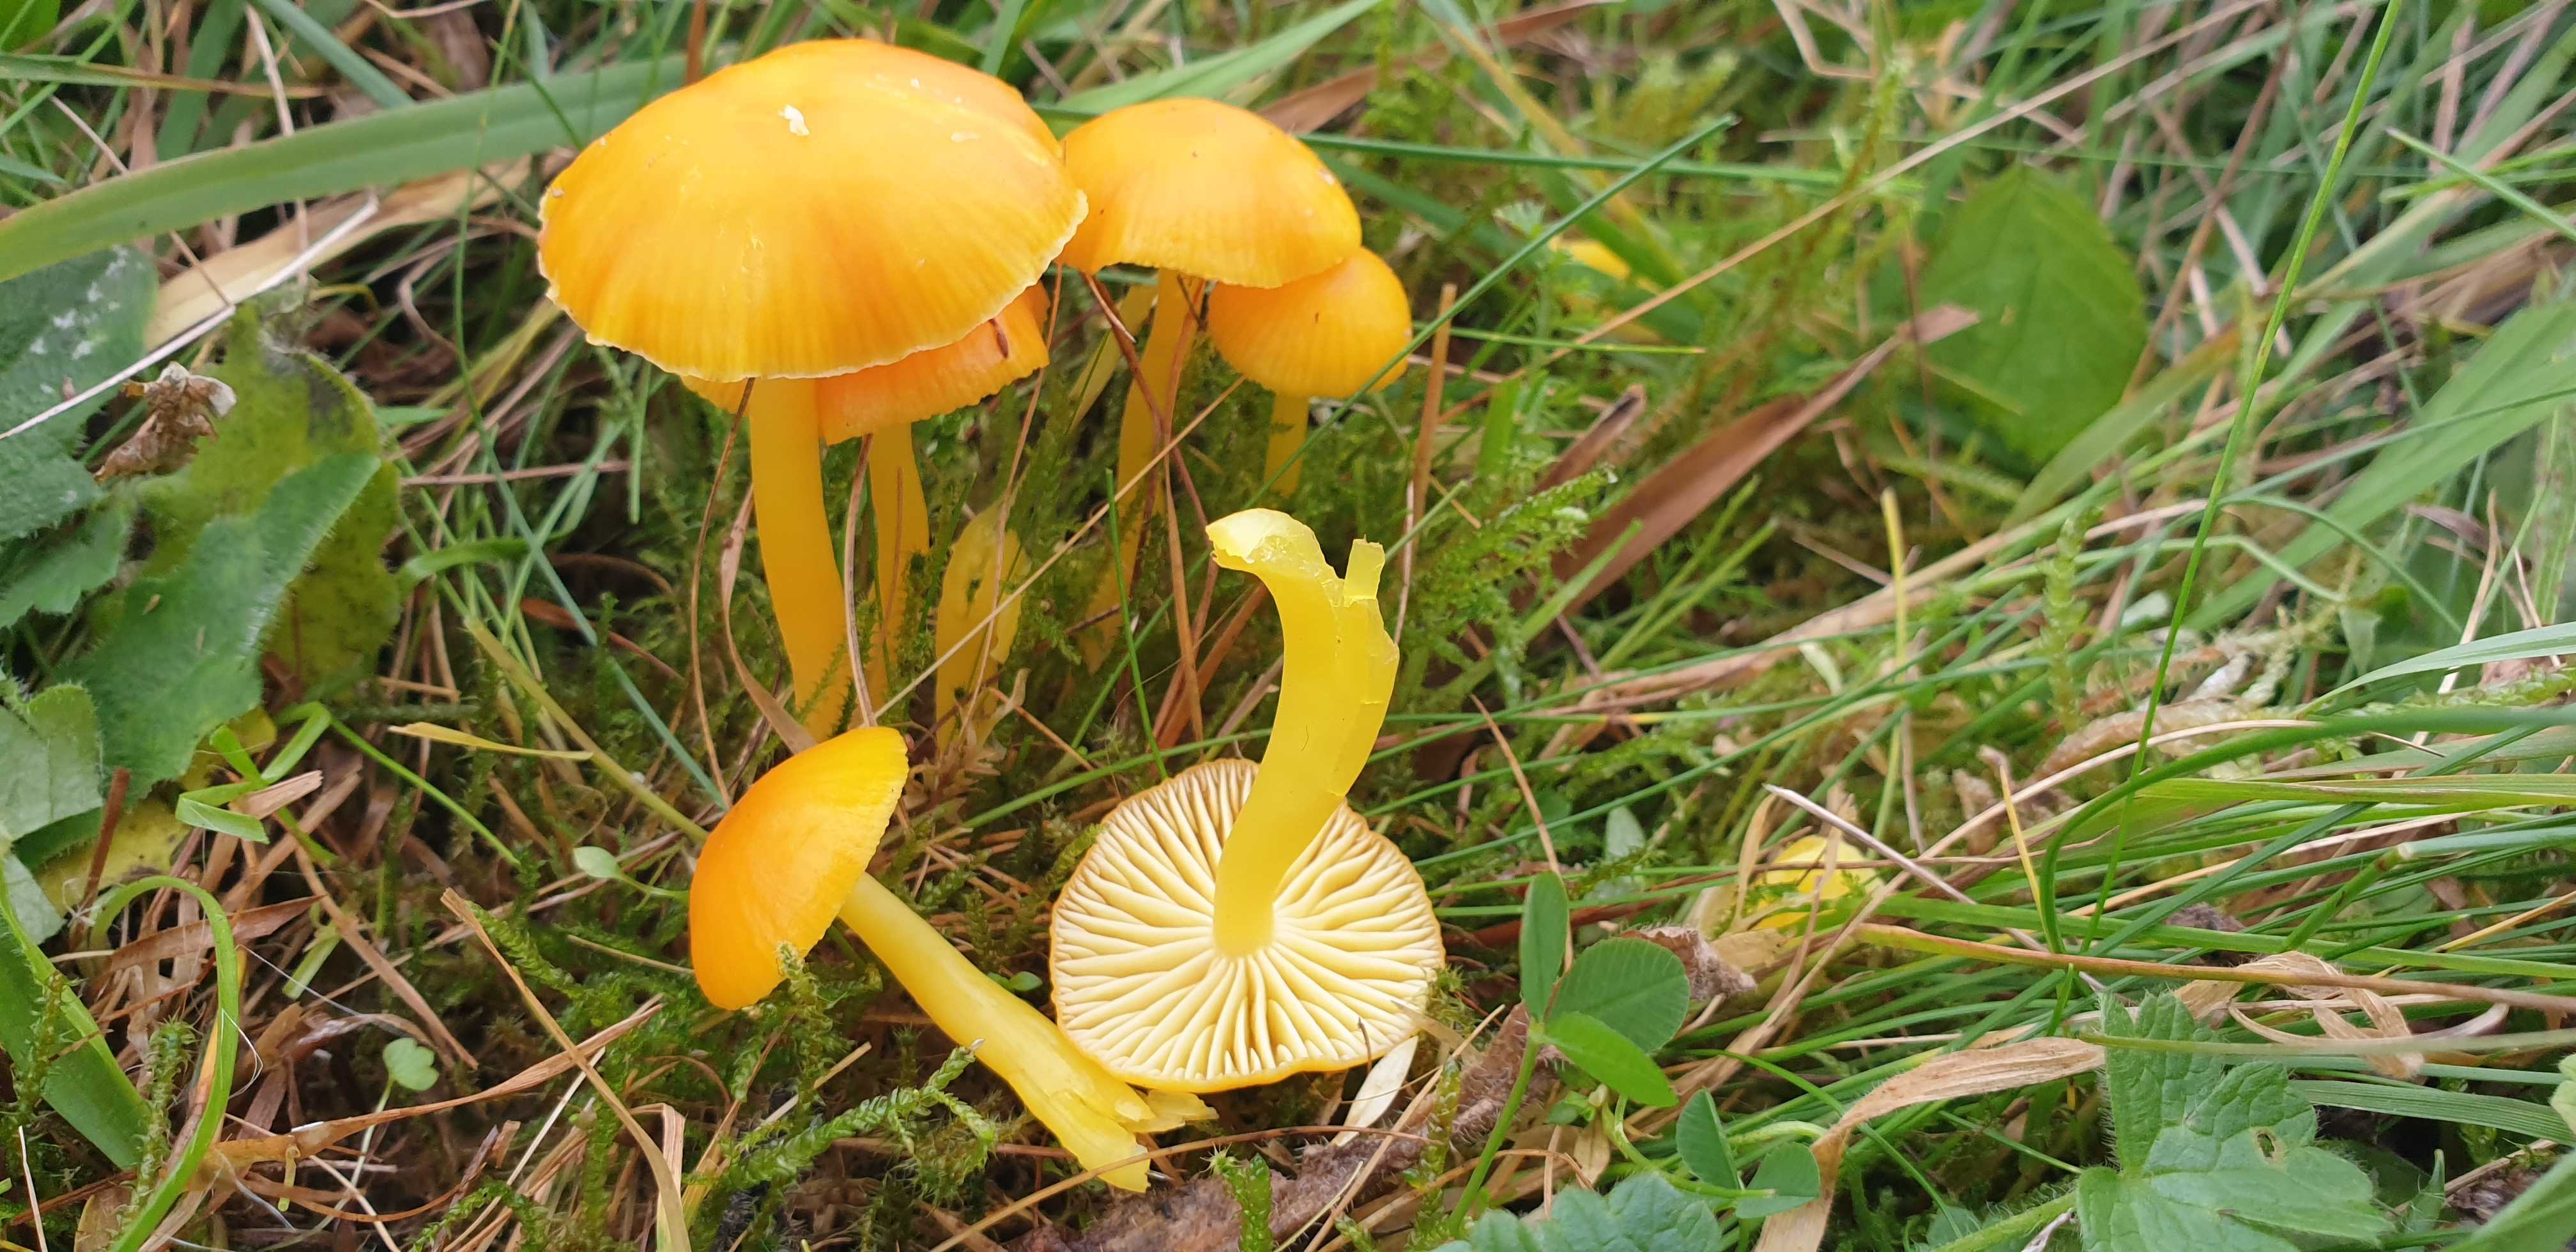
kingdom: Fungi
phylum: Basidiomycota
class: Agaricomycetes
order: Agaricales
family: Hygrophoraceae
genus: Hygrocybe
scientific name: Hygrocybe ceracea
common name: voksgul vokshat
